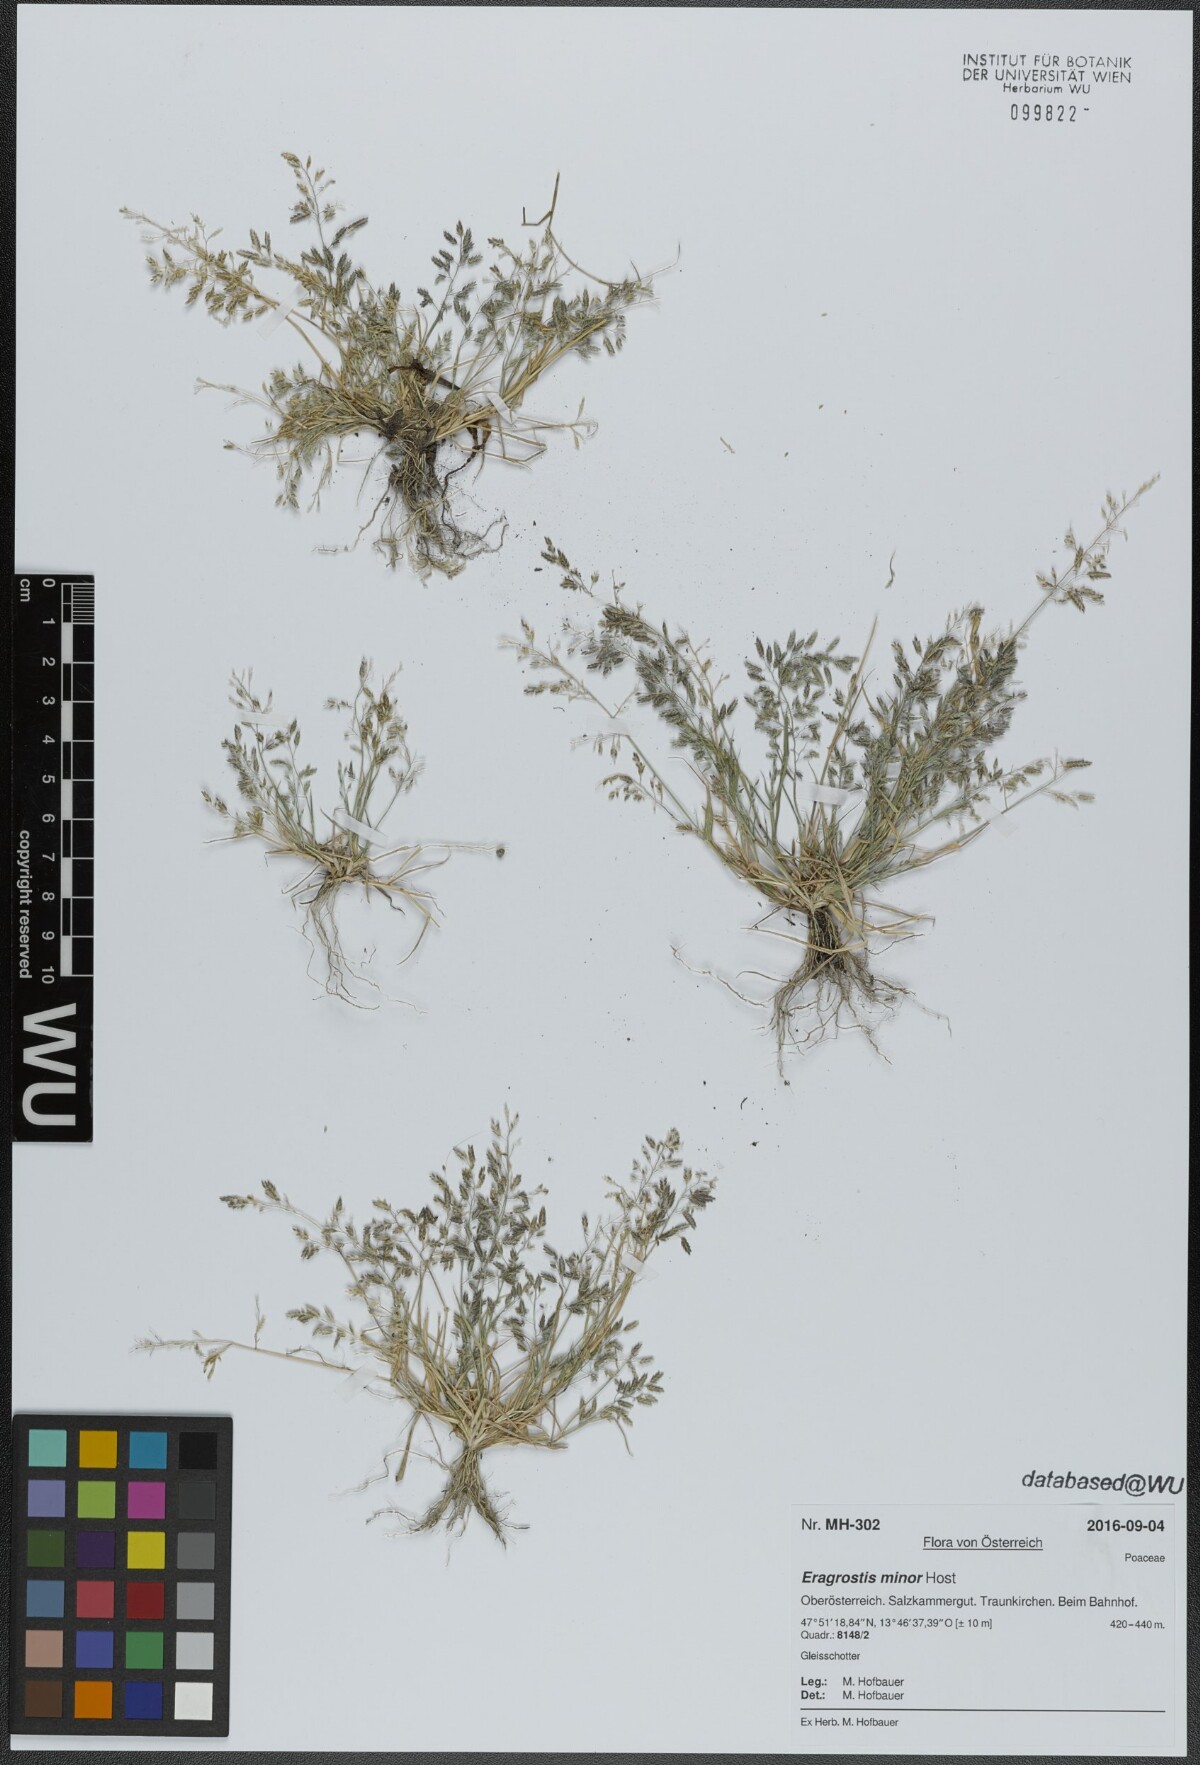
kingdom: Plantae
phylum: Tracheophyta
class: Liliopsida
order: Poales
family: Poaceae
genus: Eragrostis
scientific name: Eragrostis minor
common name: Small love-grass
